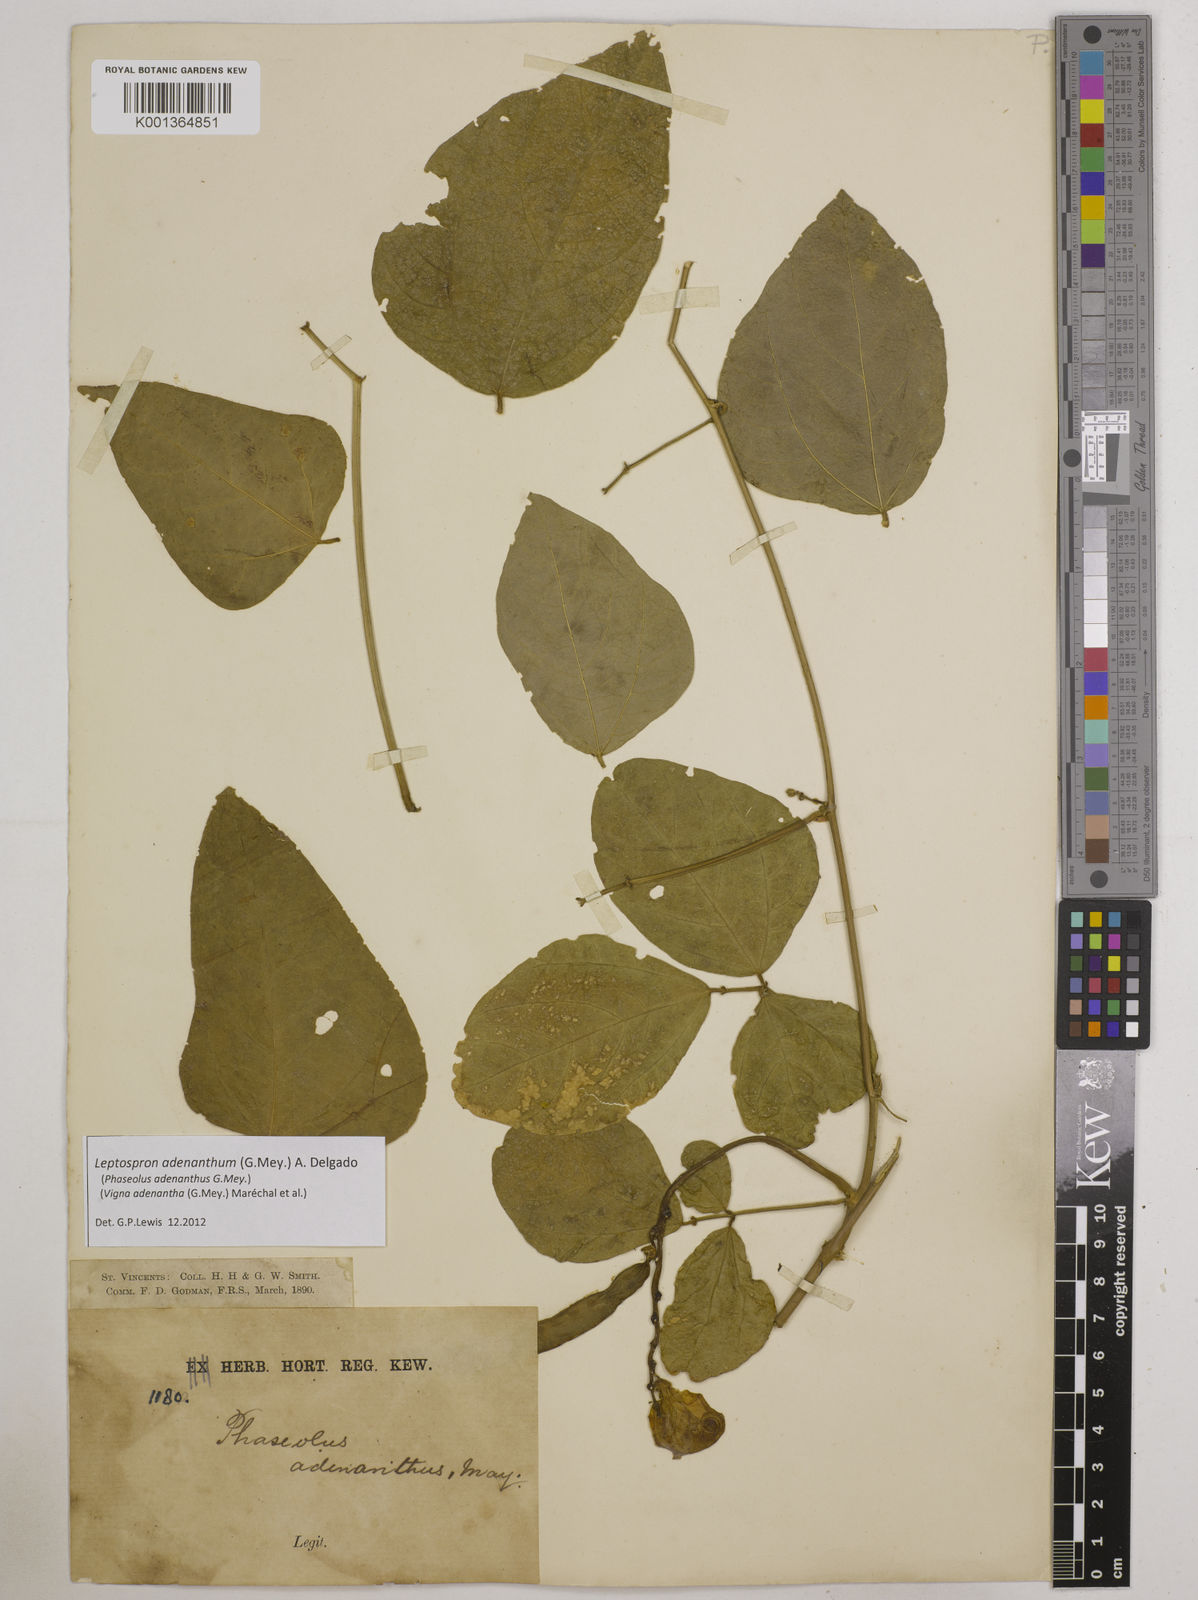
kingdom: Plantae
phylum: Tracheophyta
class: Magnoliopsida
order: Fabales
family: Fabaceae
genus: Leptospron
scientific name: Leptospron adenanthum
